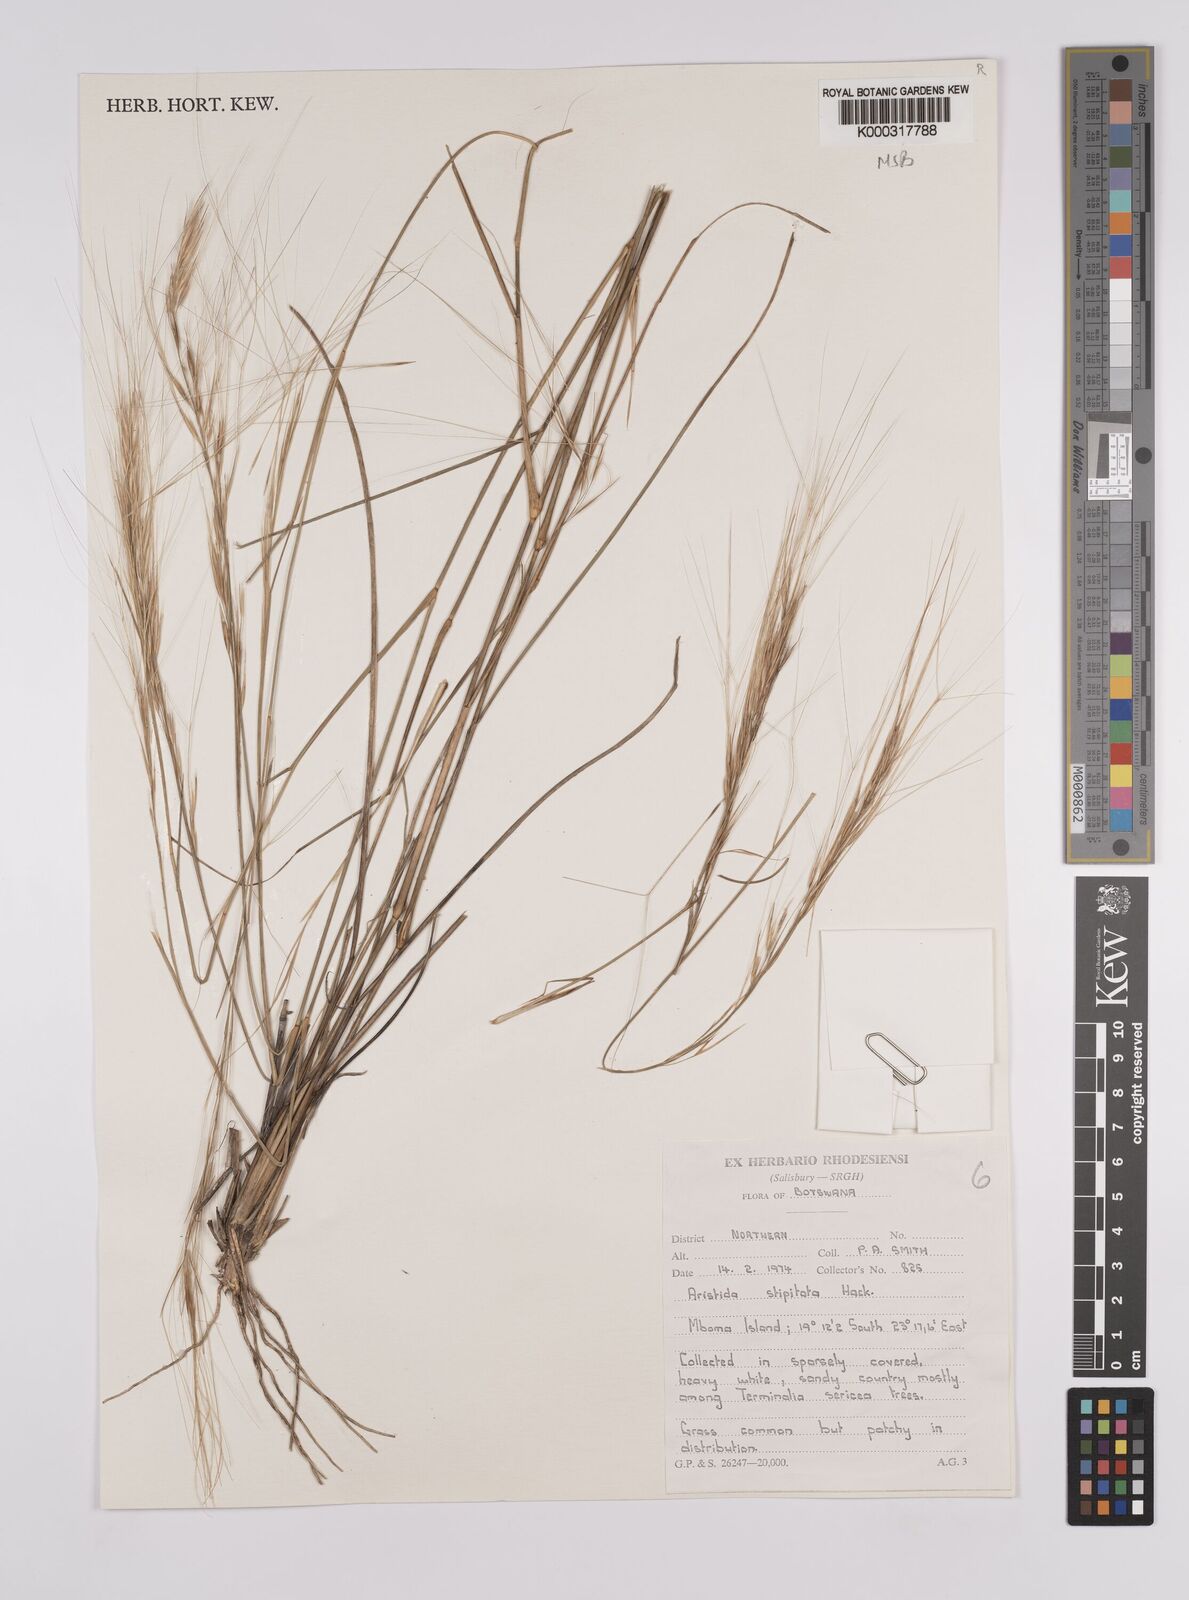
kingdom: Plantae
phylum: Tracheophyta
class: Liliopsida
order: Poales
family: Poaceae
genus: Aristida
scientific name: Aristida stipitata
